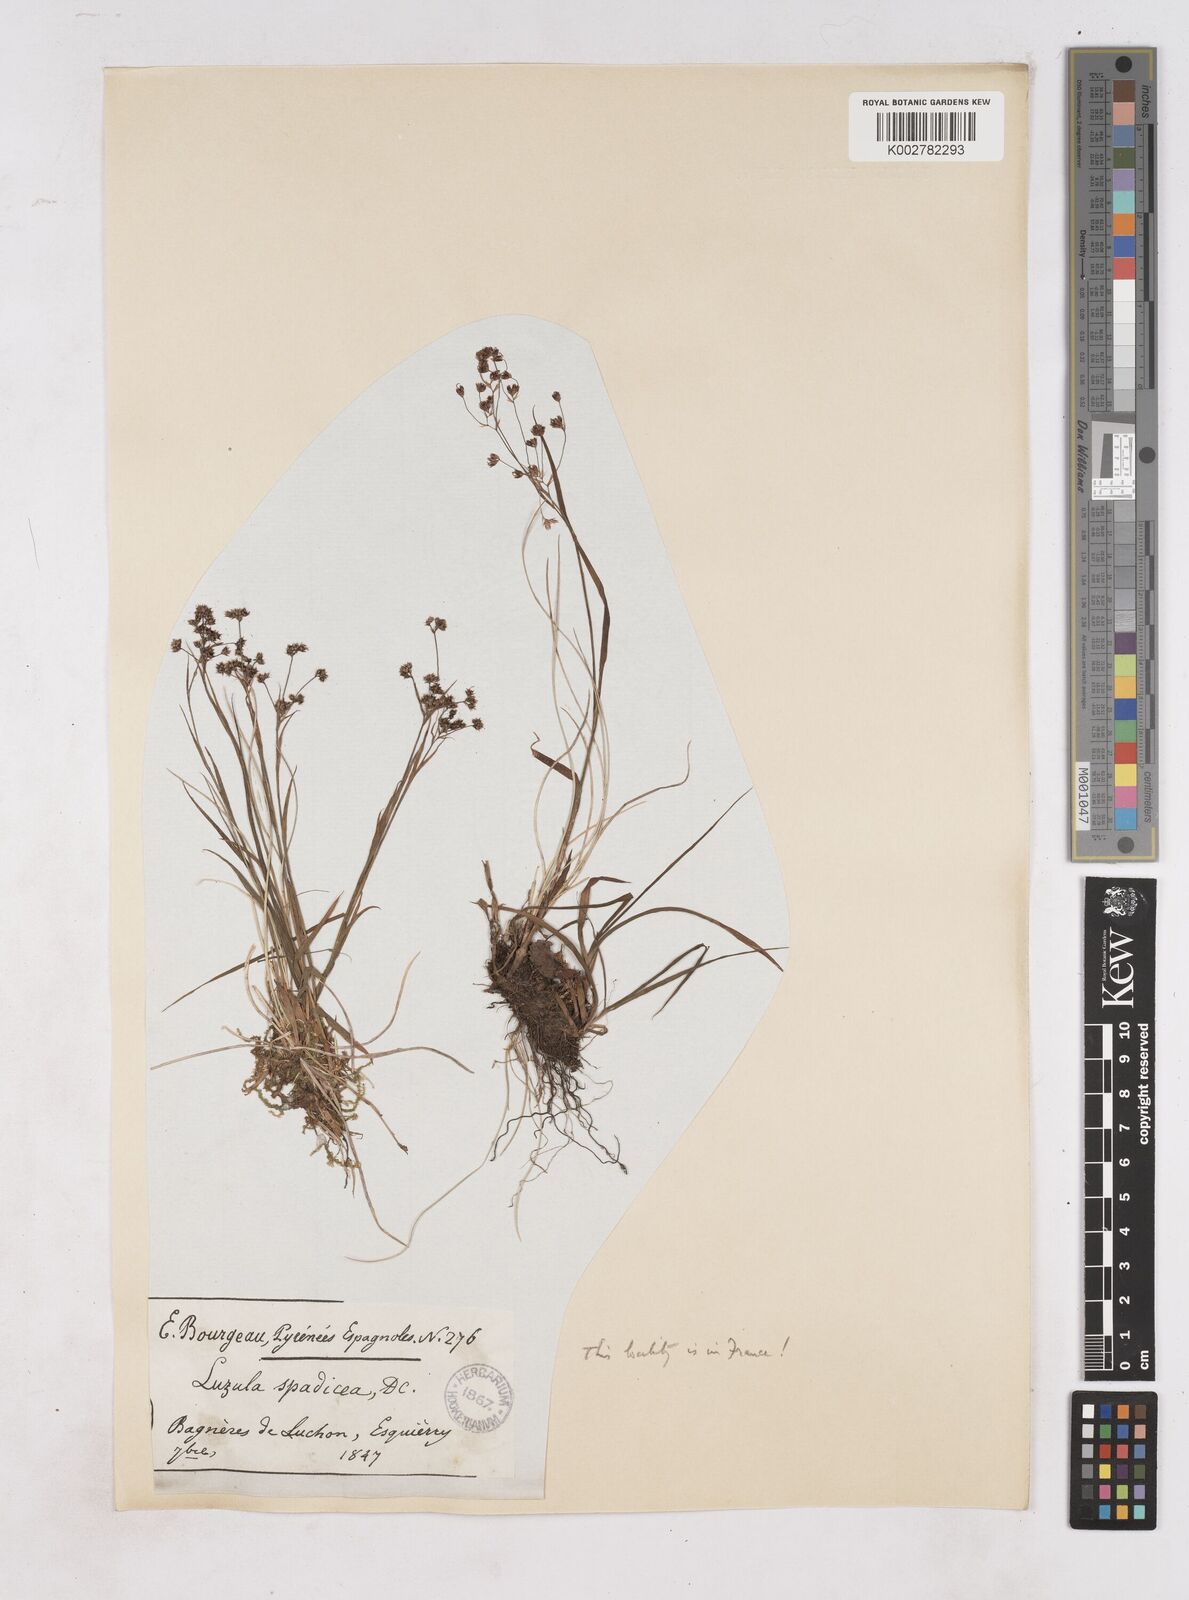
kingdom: Plantae
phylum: Tracheophyta
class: Liliopsida
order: Poales
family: Juncaceae
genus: Luzula
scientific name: Luzula alpinopilosa
